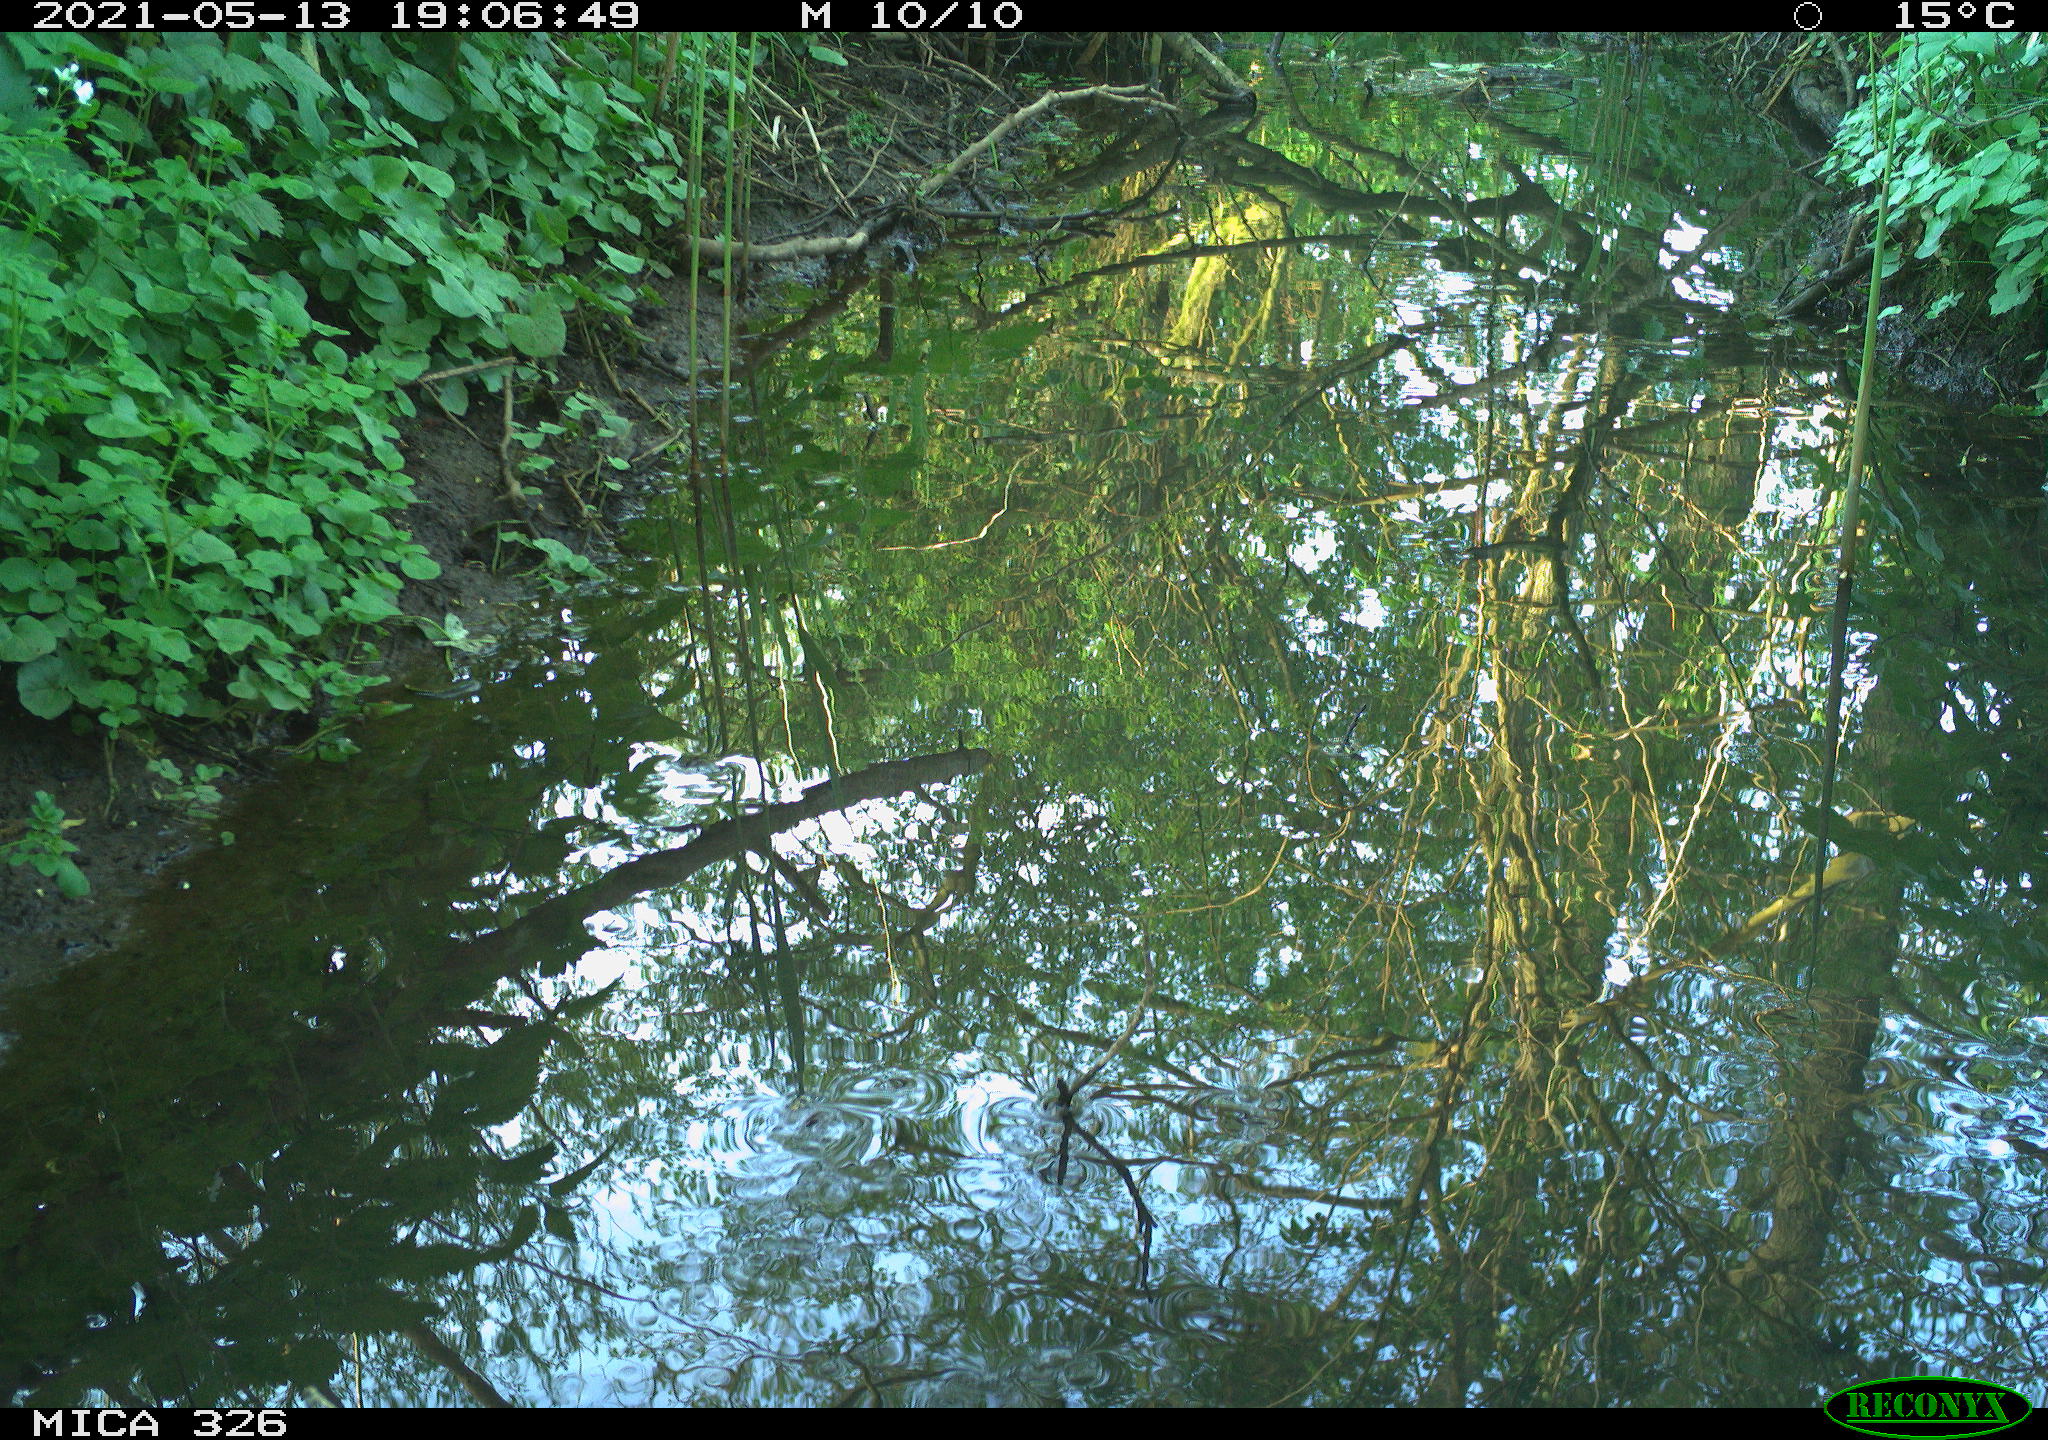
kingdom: Animalia
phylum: Chordata
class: Mammalia
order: Rodentia
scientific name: Rodentia
